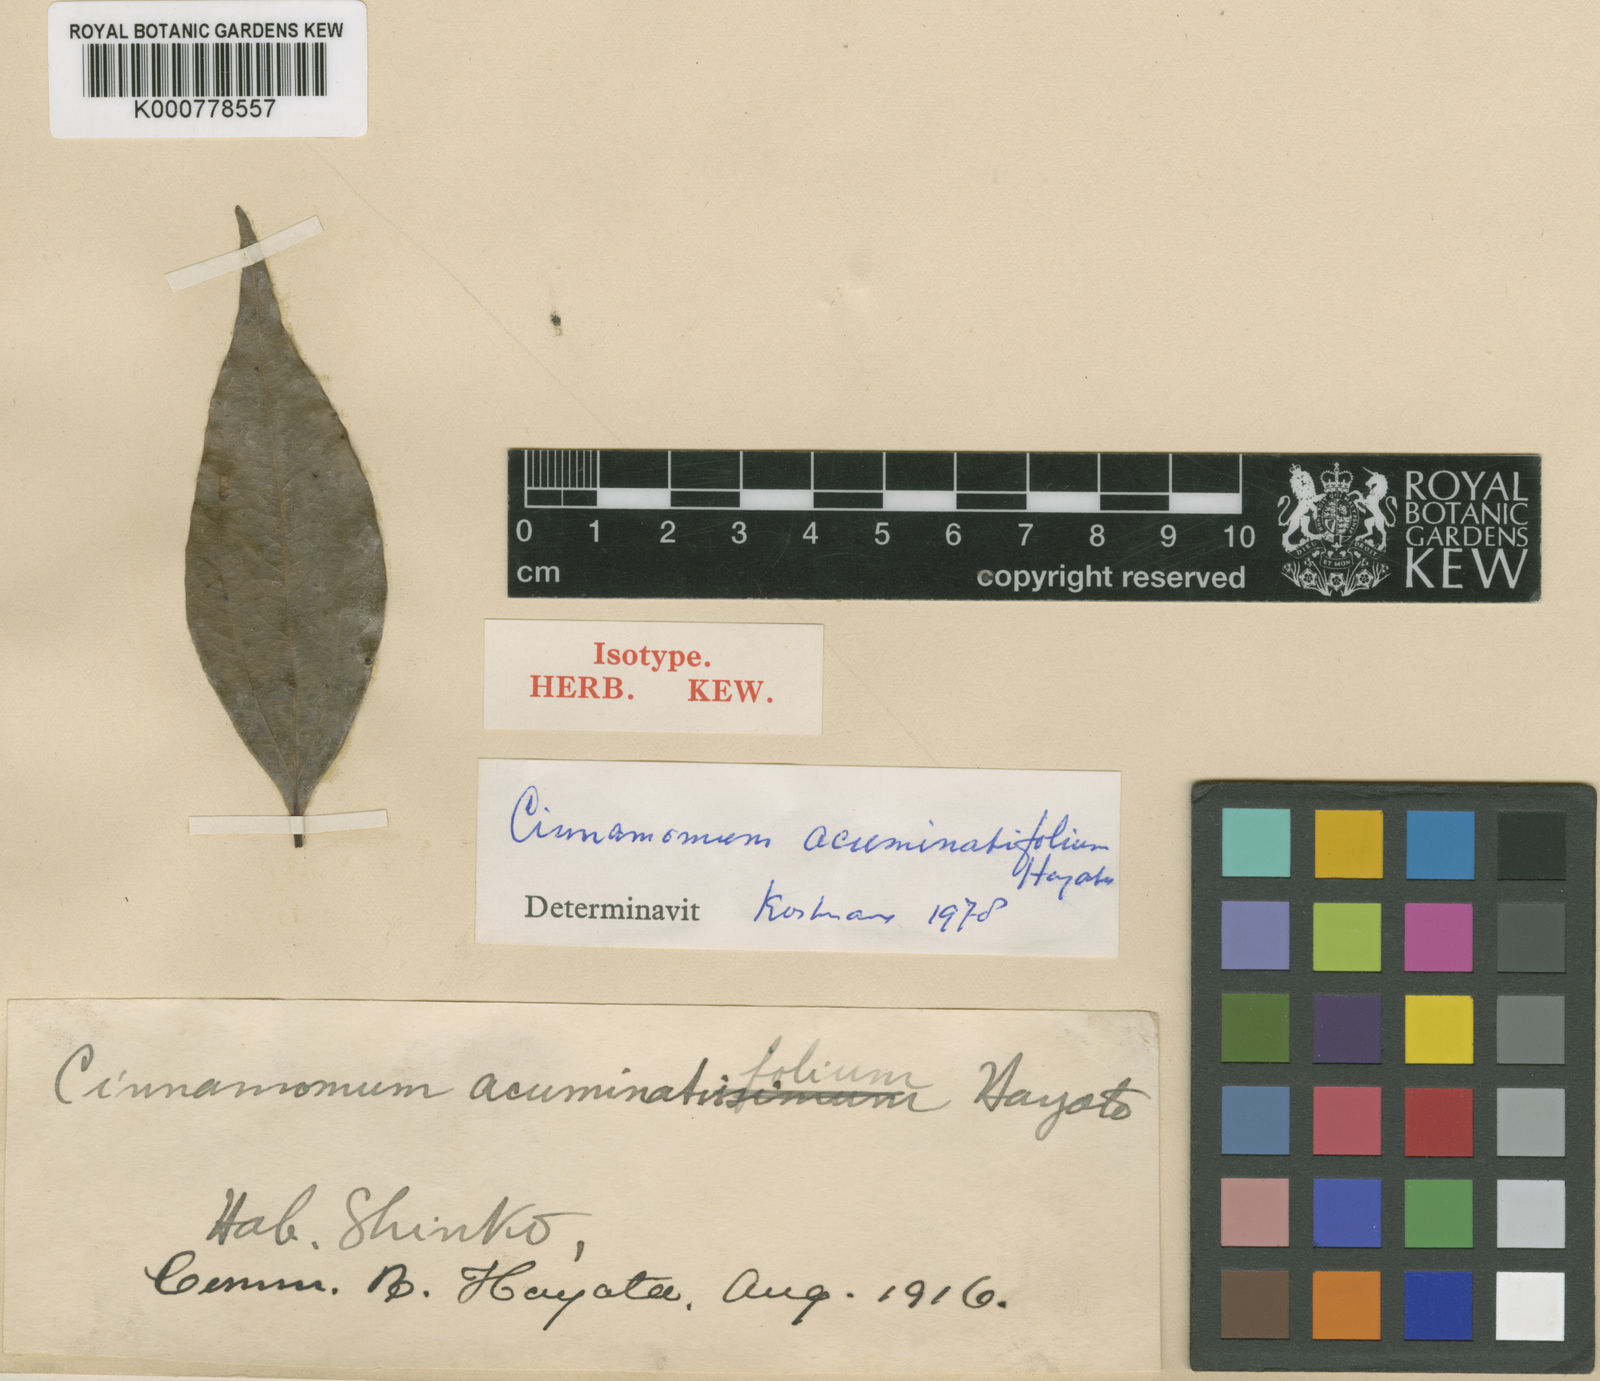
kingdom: Plantae
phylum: Tracheophyta
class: Magnoliopsida
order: Laurales
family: Lauraceae
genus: Cinnamomum
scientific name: Cinnamomum chekiangense
